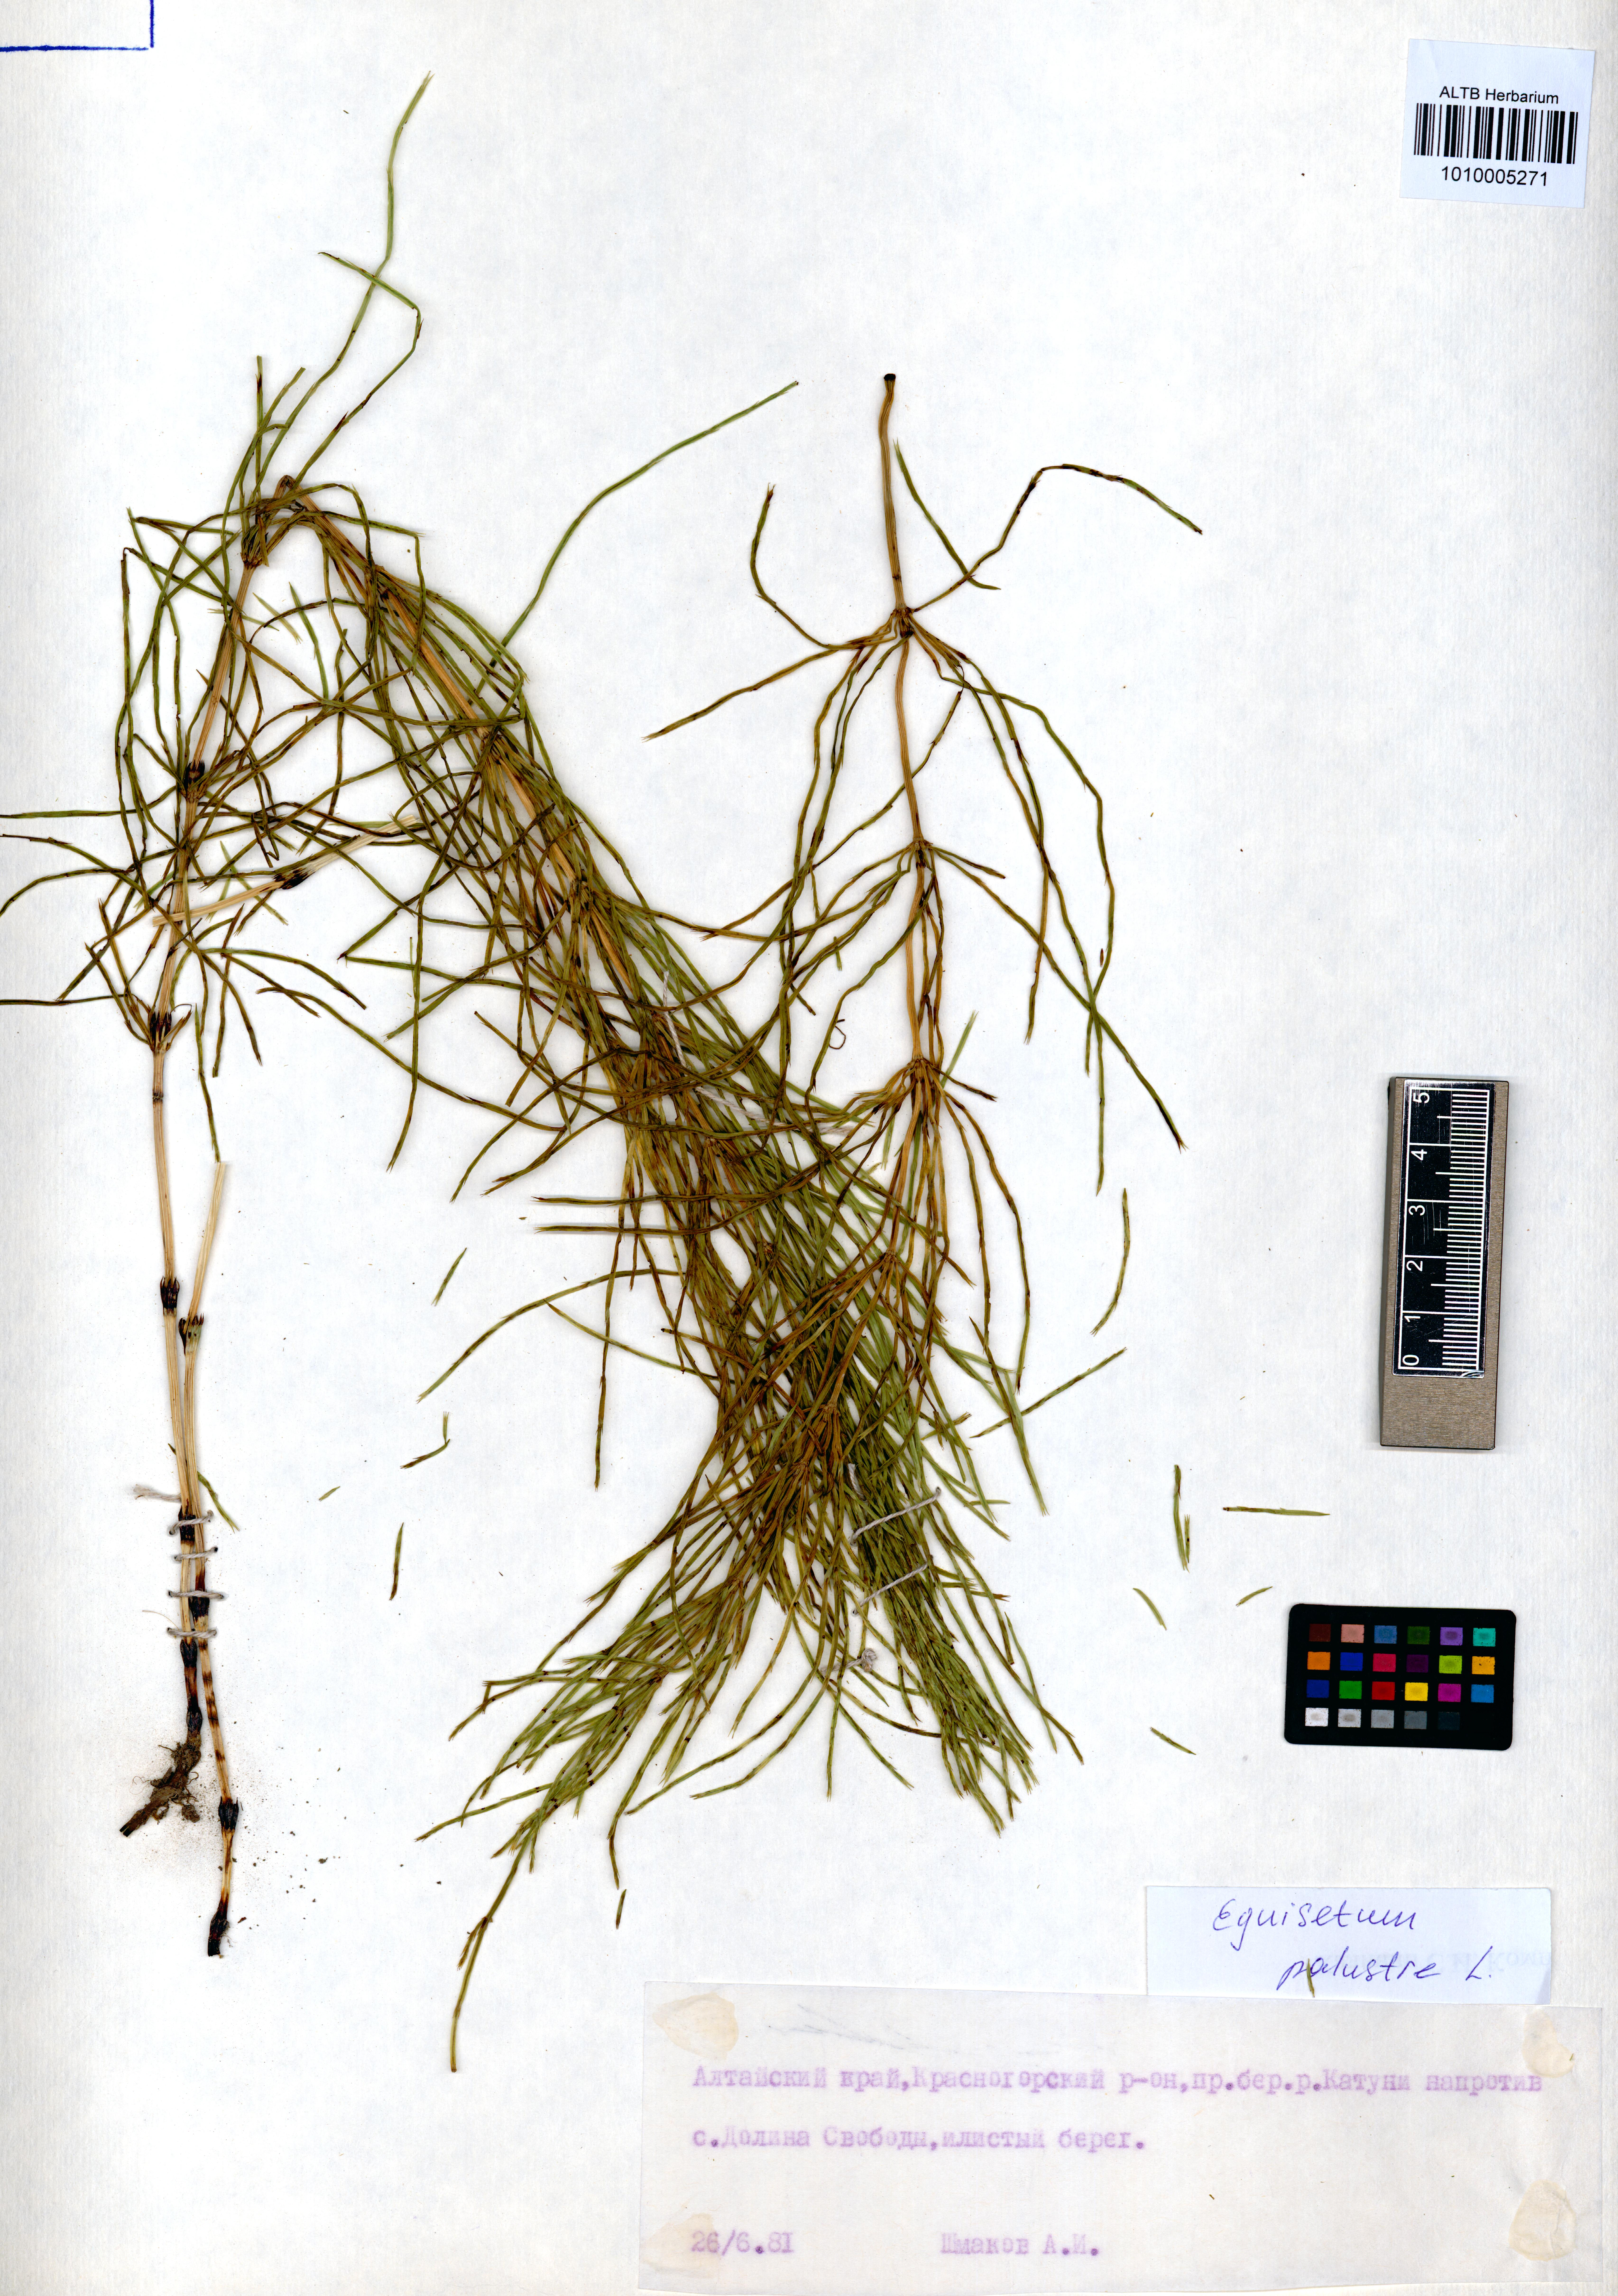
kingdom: Plantae
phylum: Tracheophyta
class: Polypodiopsida
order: Equisetales
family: Equisetaceae
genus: Equisetum
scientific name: Equisetum palustre
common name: Marsh horsetail
